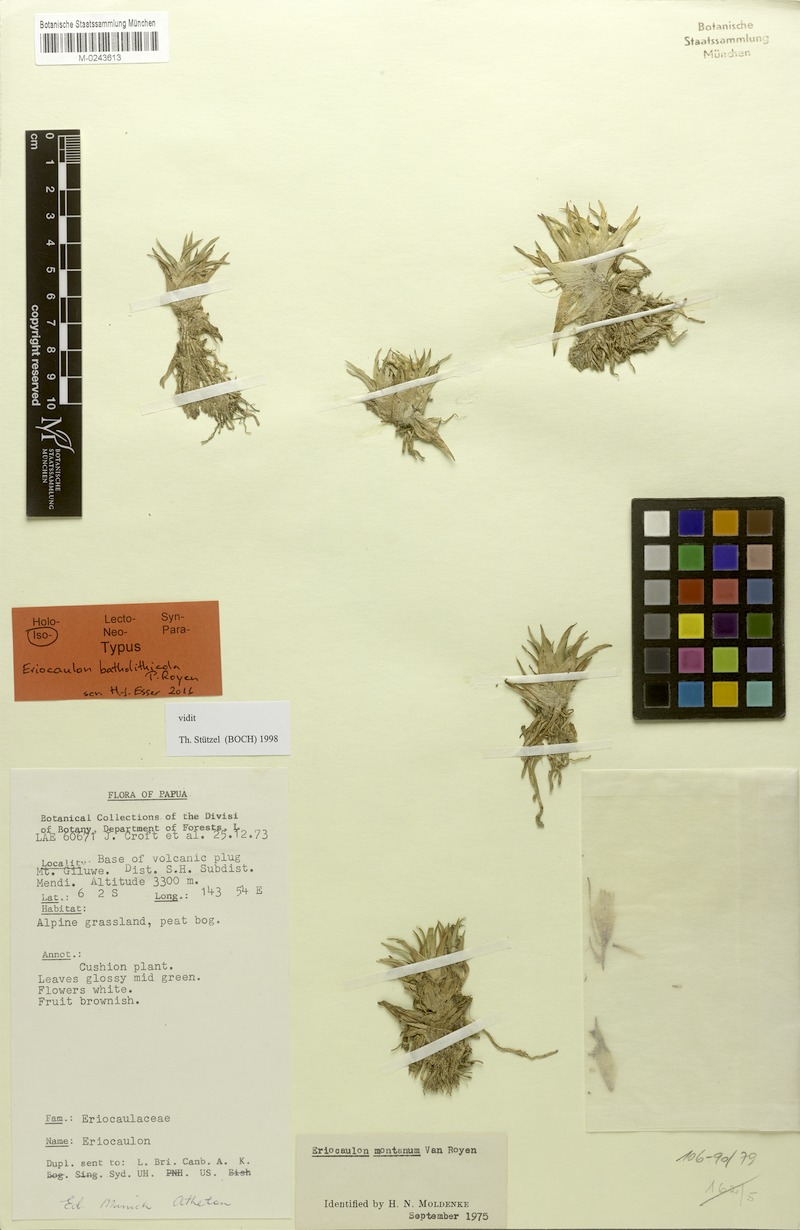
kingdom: Plantae
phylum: Tracheophyta
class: Liliopsida
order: Poales
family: Eriocaulaceae
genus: Eriocaulon
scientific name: Eriocaulon batholithicola
